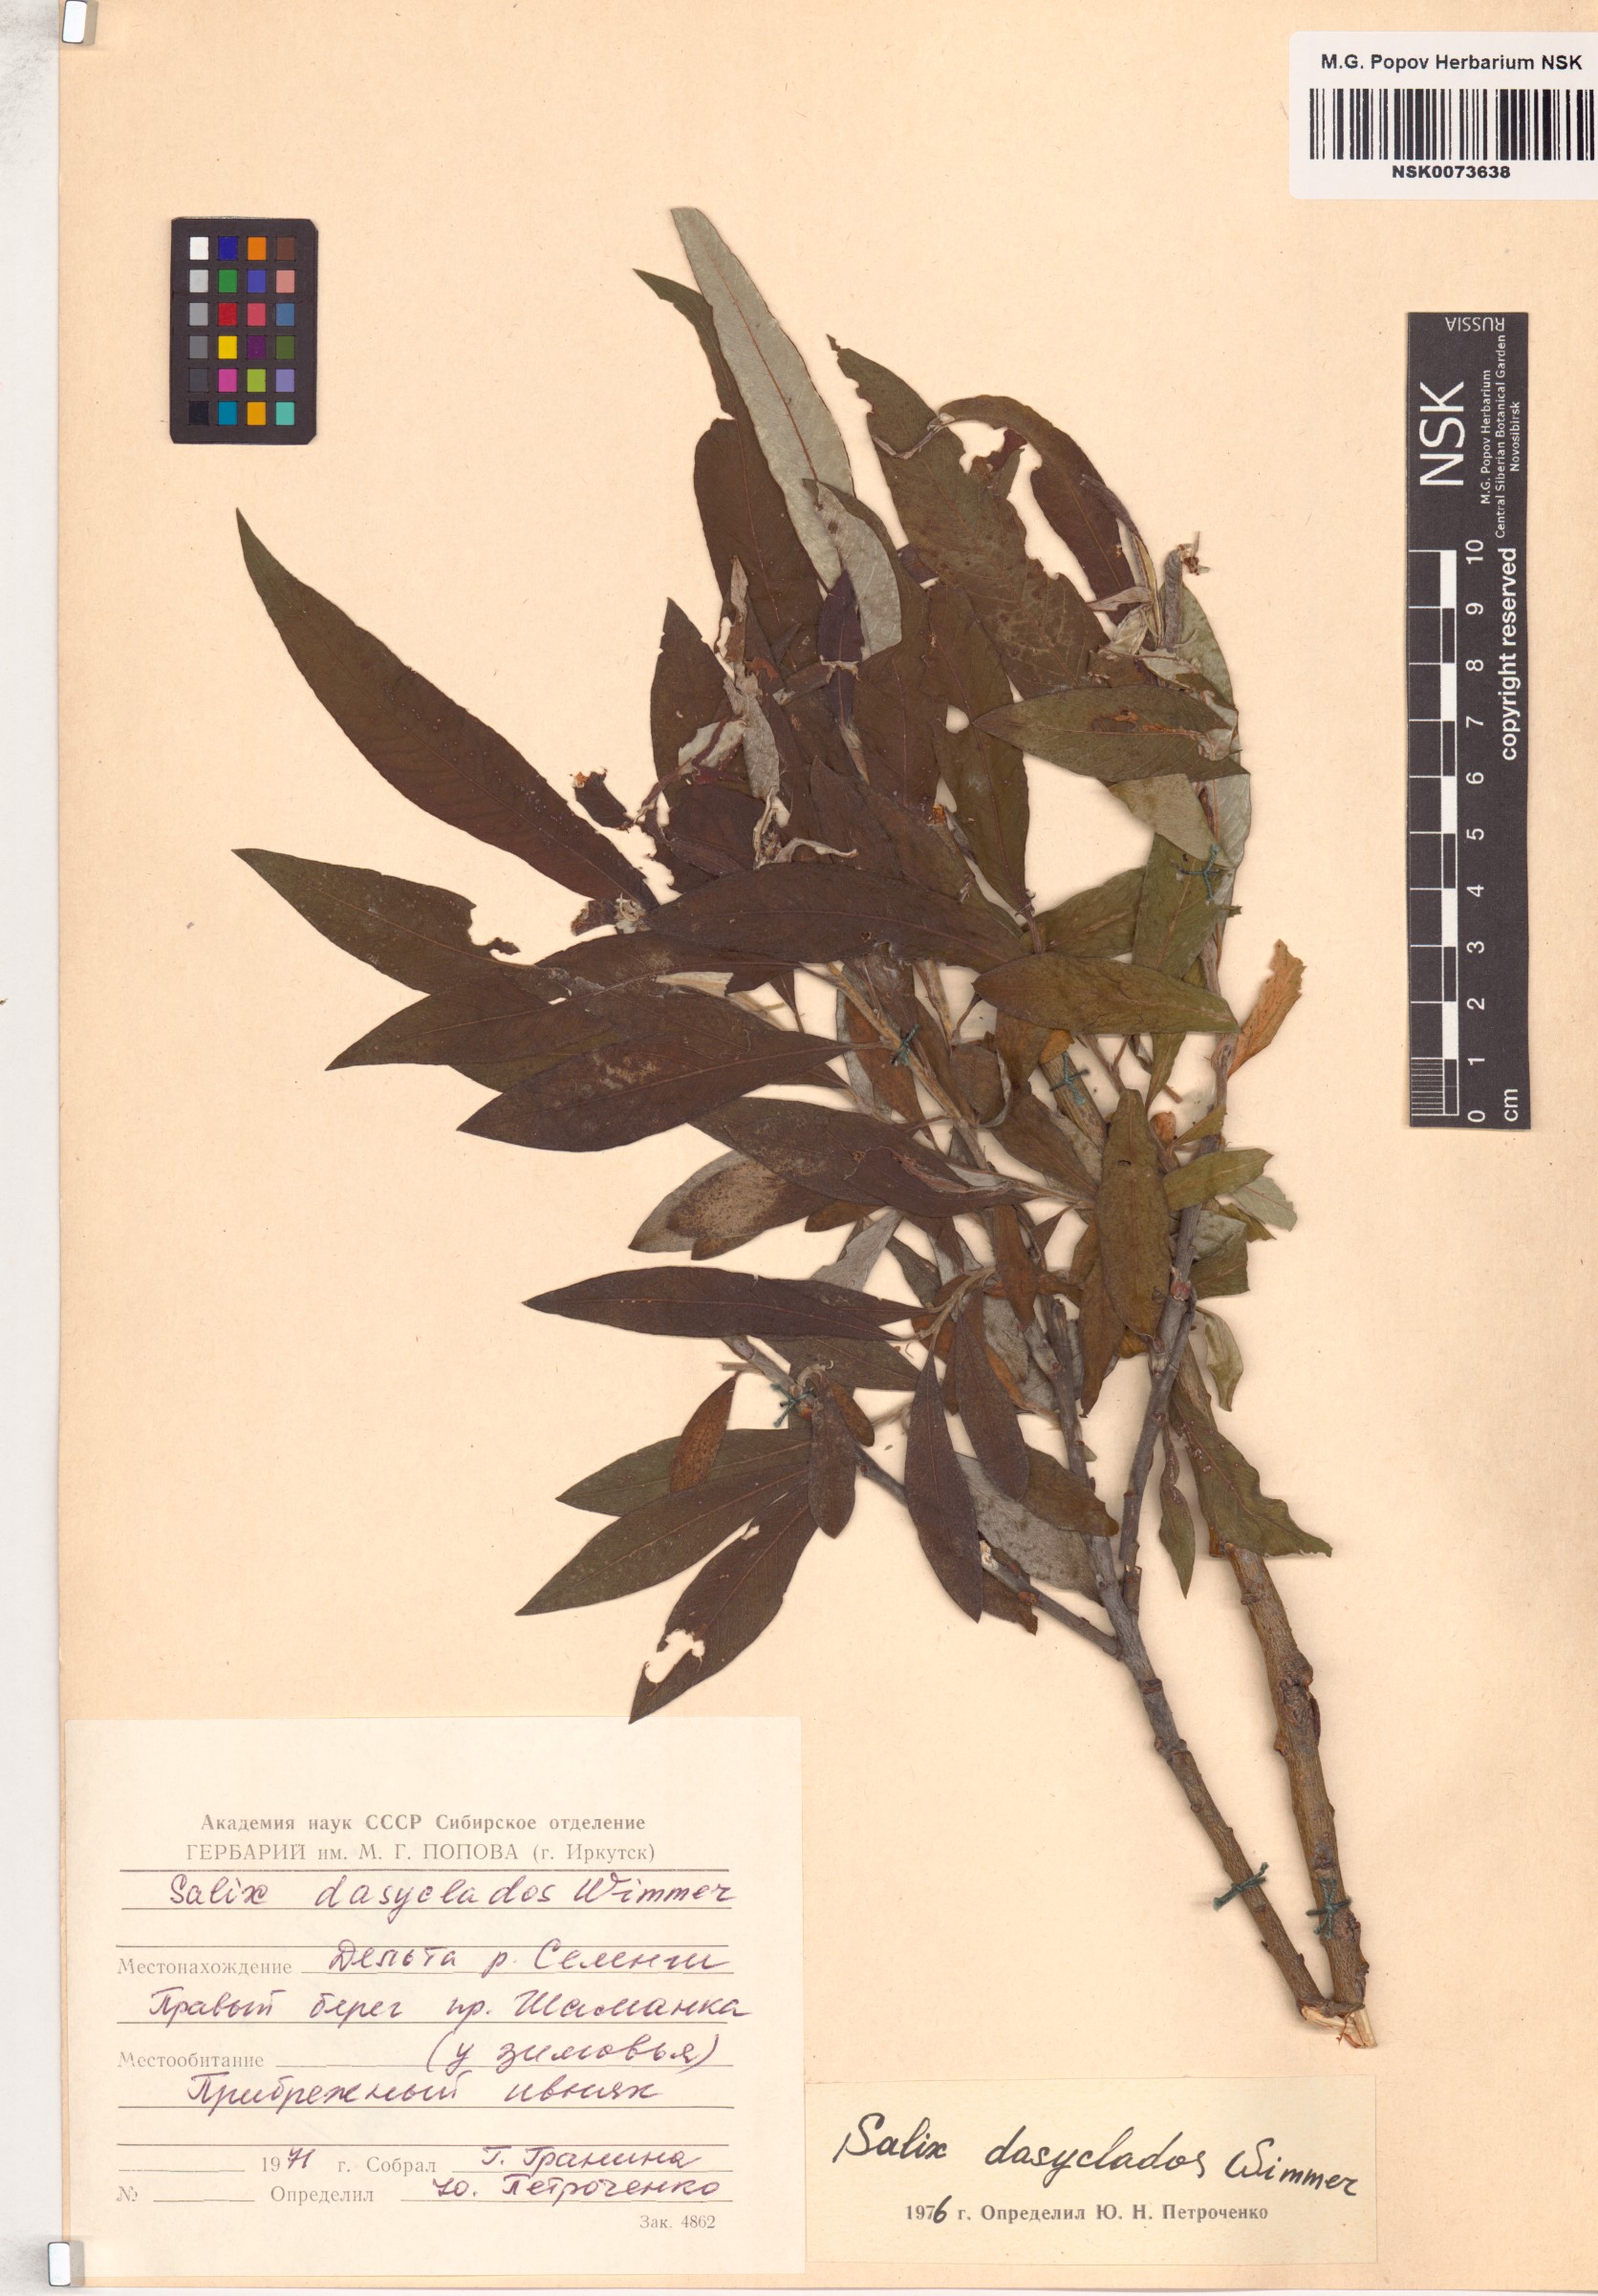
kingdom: Plantae
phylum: Tracheophyta
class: Magnoliopsida
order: Malpighiales
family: Salicaceae
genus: Salix
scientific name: Salix gmelinii
